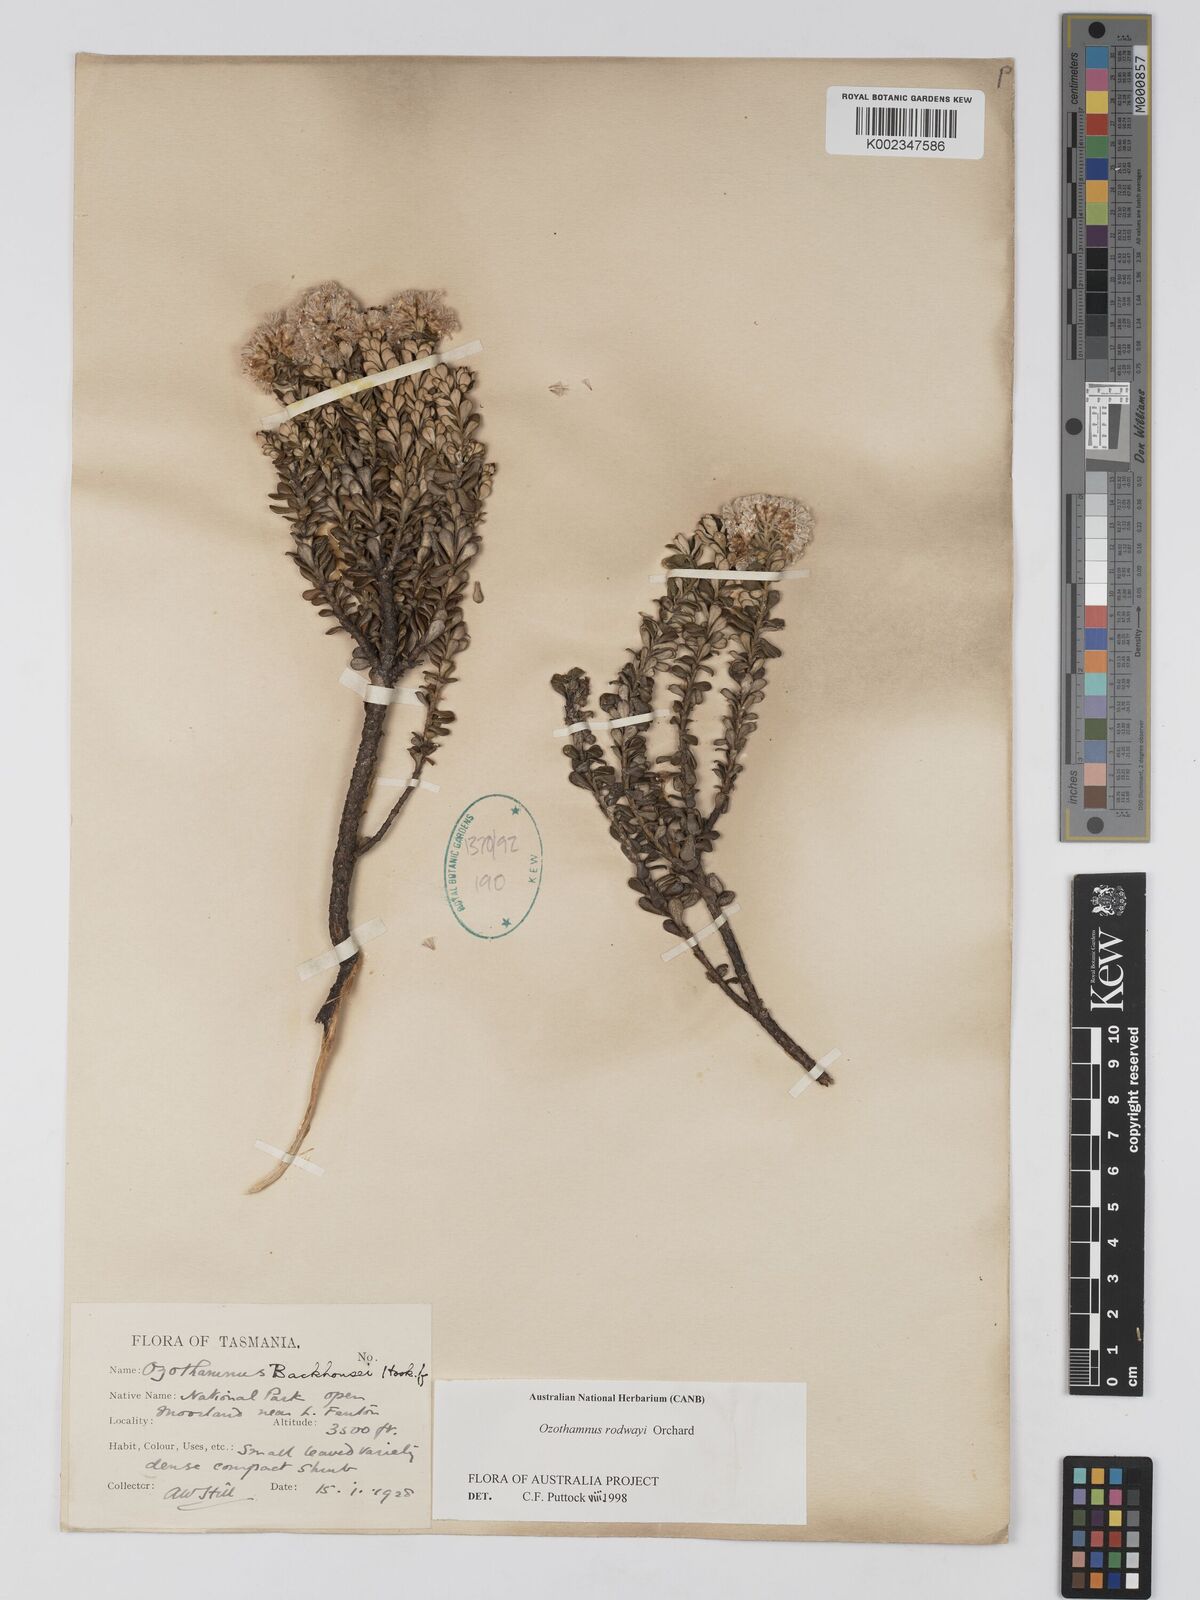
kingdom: Plantae
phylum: Tracheophyta
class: Magnoliopsida
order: Asterales
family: Asteraceae
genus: Ozothamnus
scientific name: Ozothamnus rodwayi
